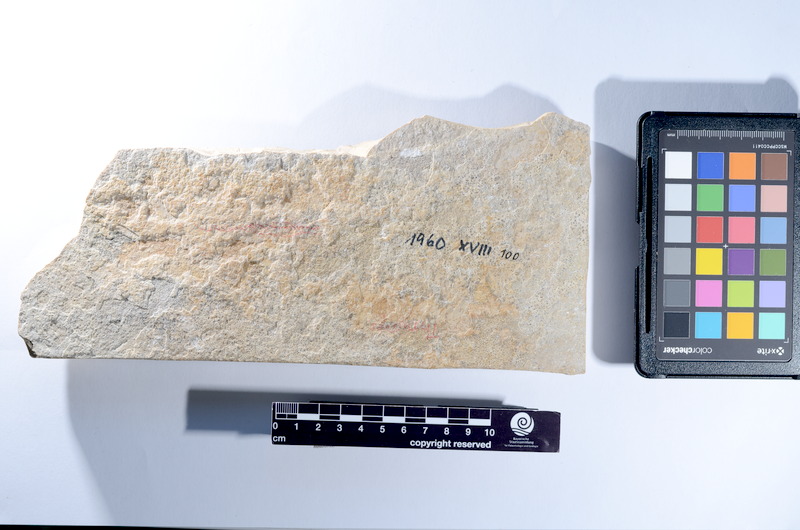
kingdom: Animalia
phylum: Chordata
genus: Thrissops
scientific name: Thrissops
